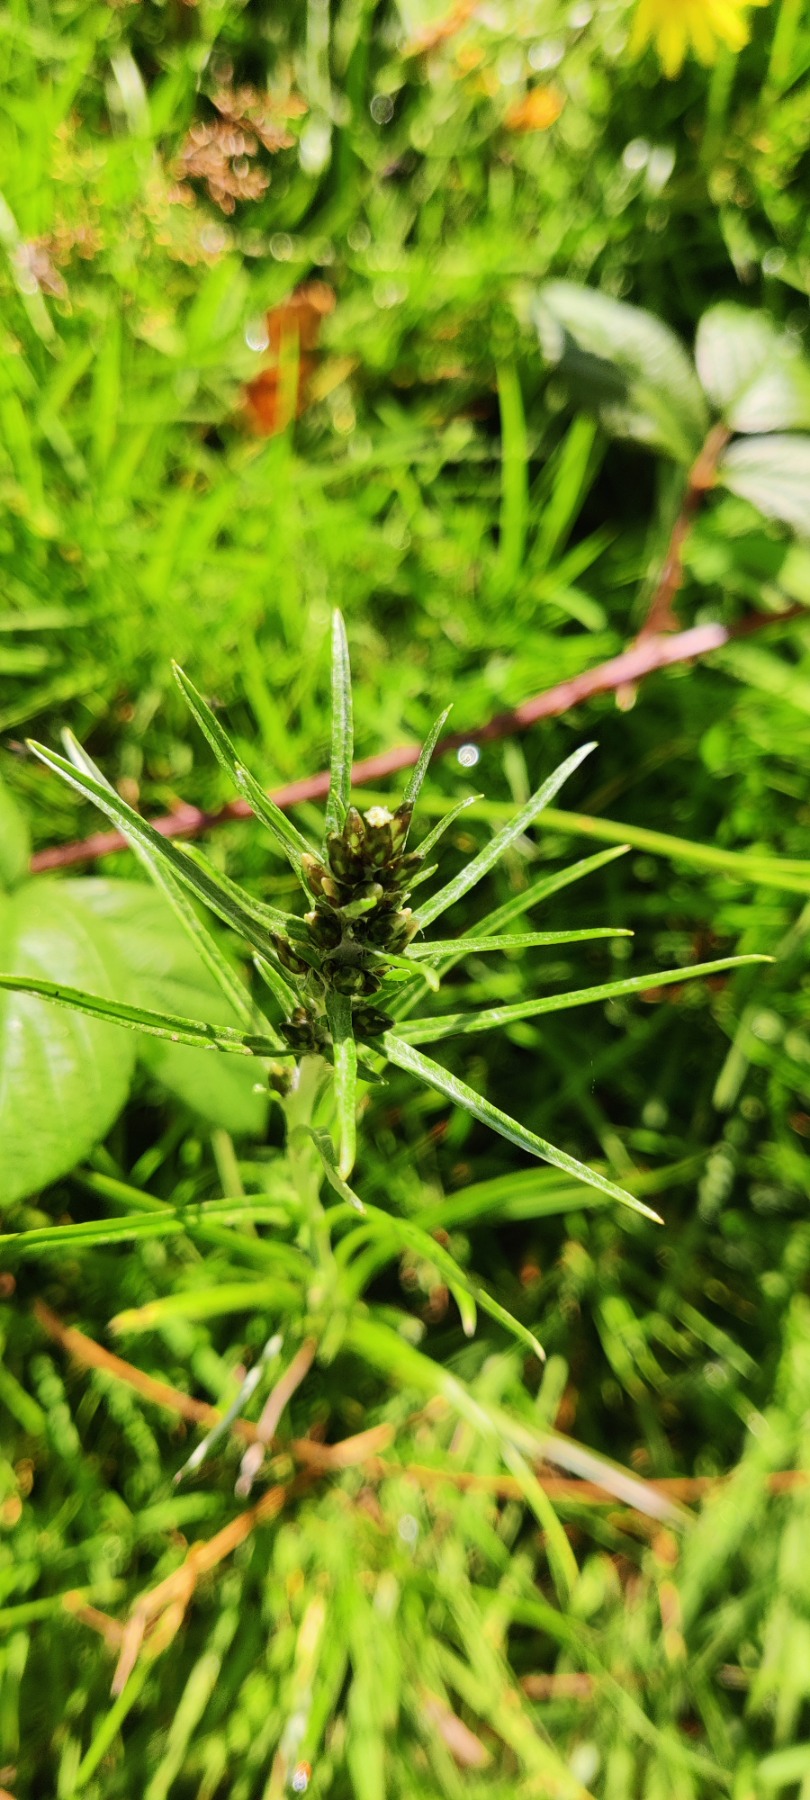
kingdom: Plantae
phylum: Tracheophyta
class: Magnoliopsida
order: Asterales
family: Asteraceae
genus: Omalotheca
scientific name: Omalotheca sylvatica
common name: Rank evighedsblomst
